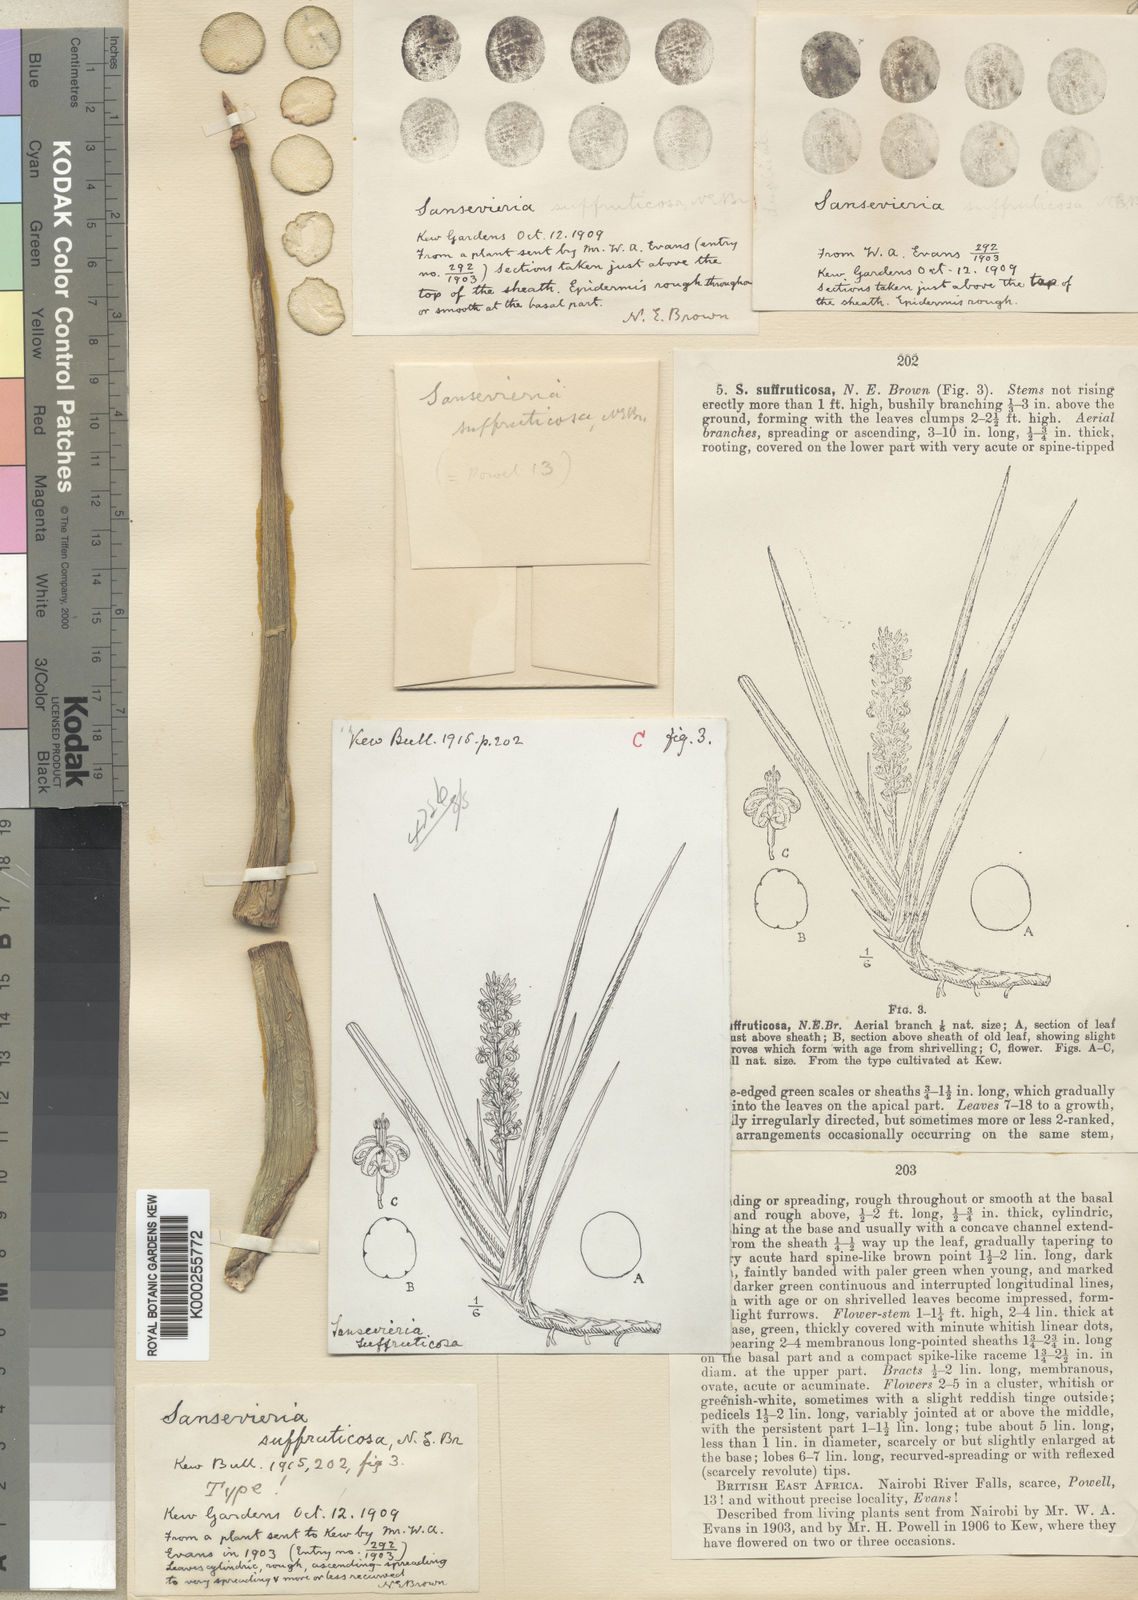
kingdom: Plantae
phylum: Tracheophyta
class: Liliopsida
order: Asparagales
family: Asparagaceae
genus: Dracaena
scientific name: Dracaena suffruticosa
